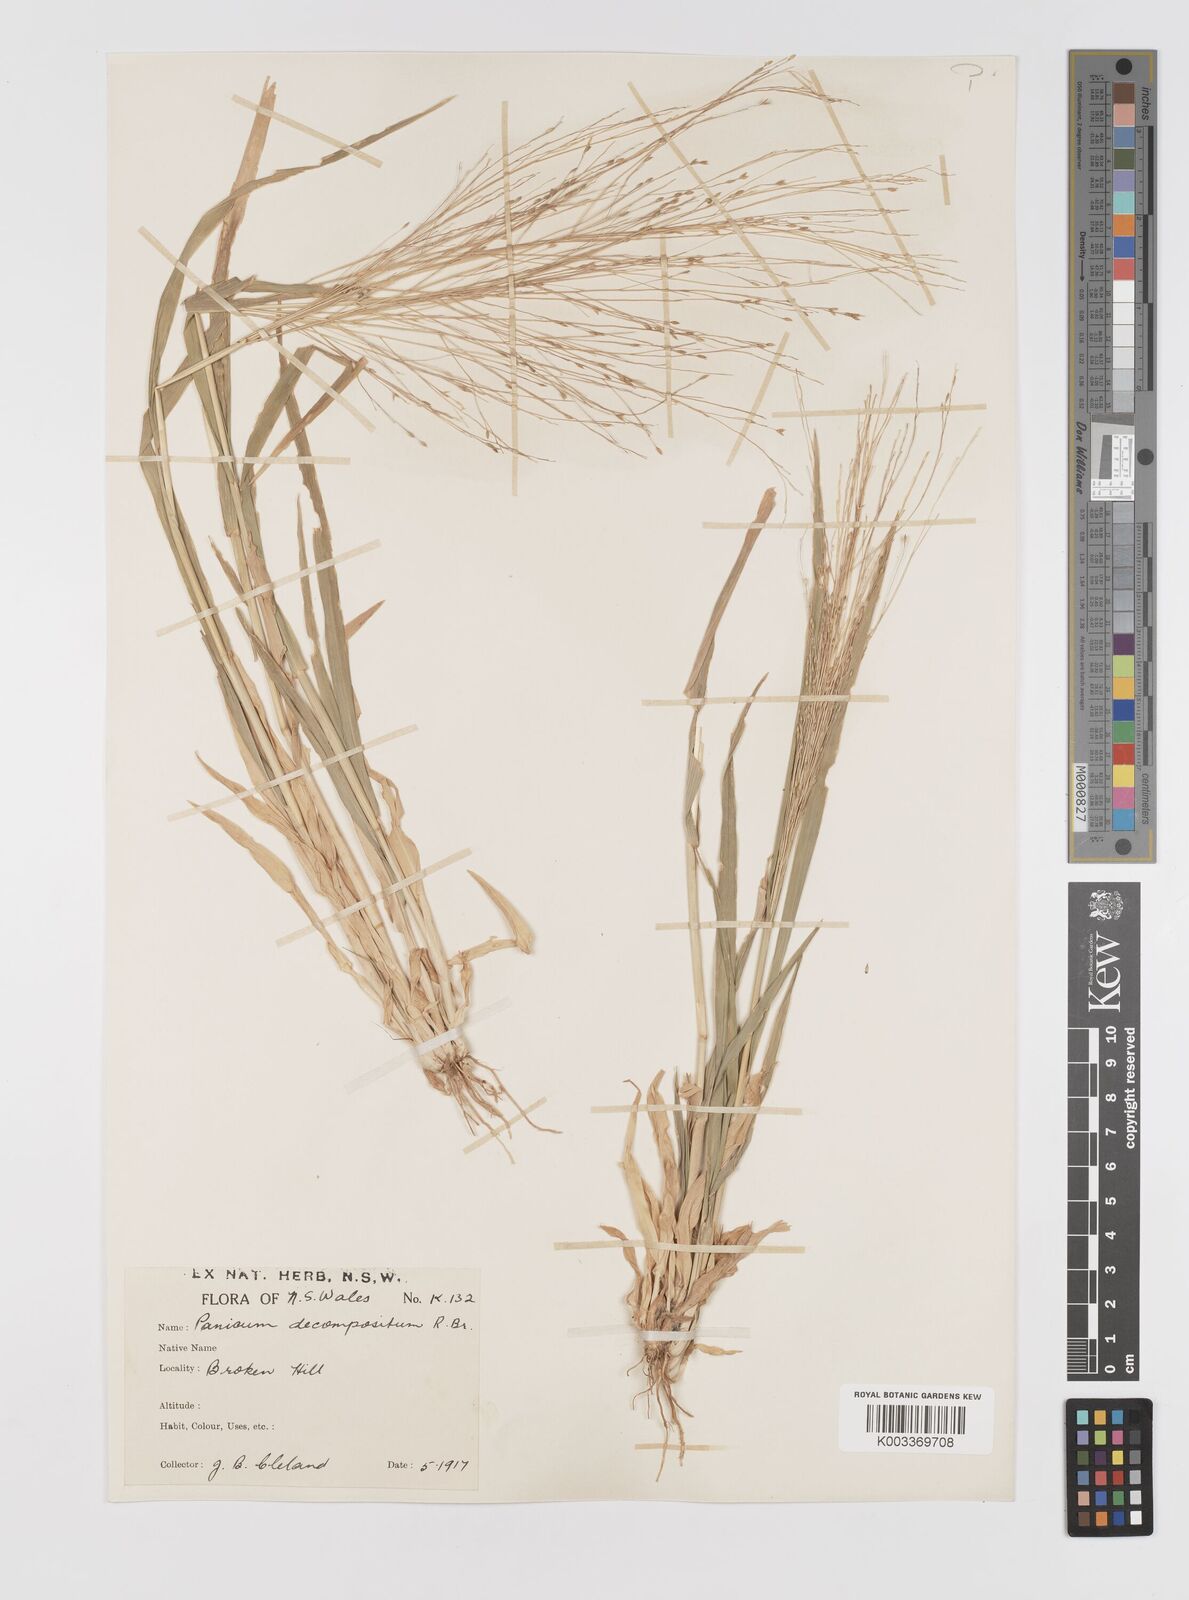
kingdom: Plantae
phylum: Tracheophyta
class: Liliopsida
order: Poales
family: Poaceae
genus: Panicum
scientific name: Panicum decompositum
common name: Australian millet
